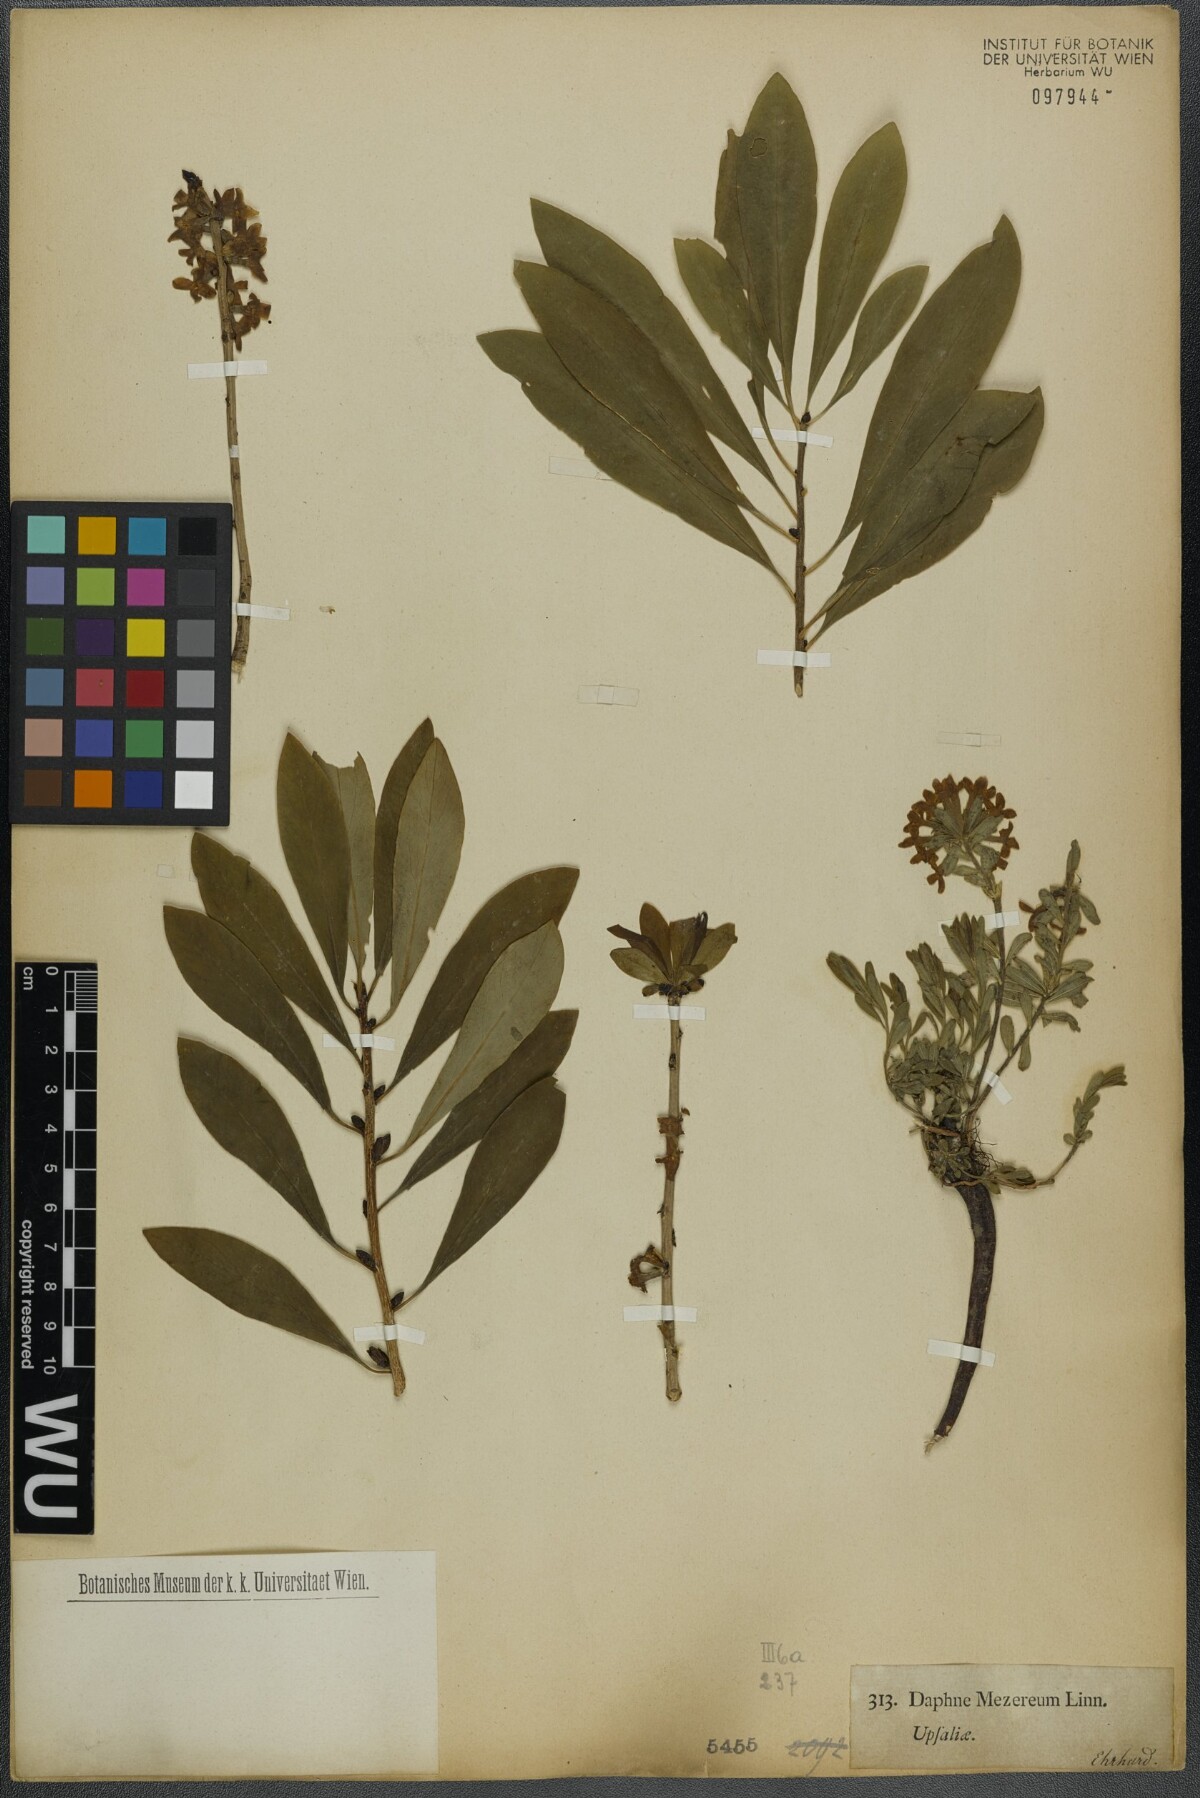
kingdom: Plantae
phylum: Tracheophyta
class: Magnoliopsida
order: Malvales
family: Thymelaeaceae
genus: Daphne
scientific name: Daphne mezereum
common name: Mezereon
